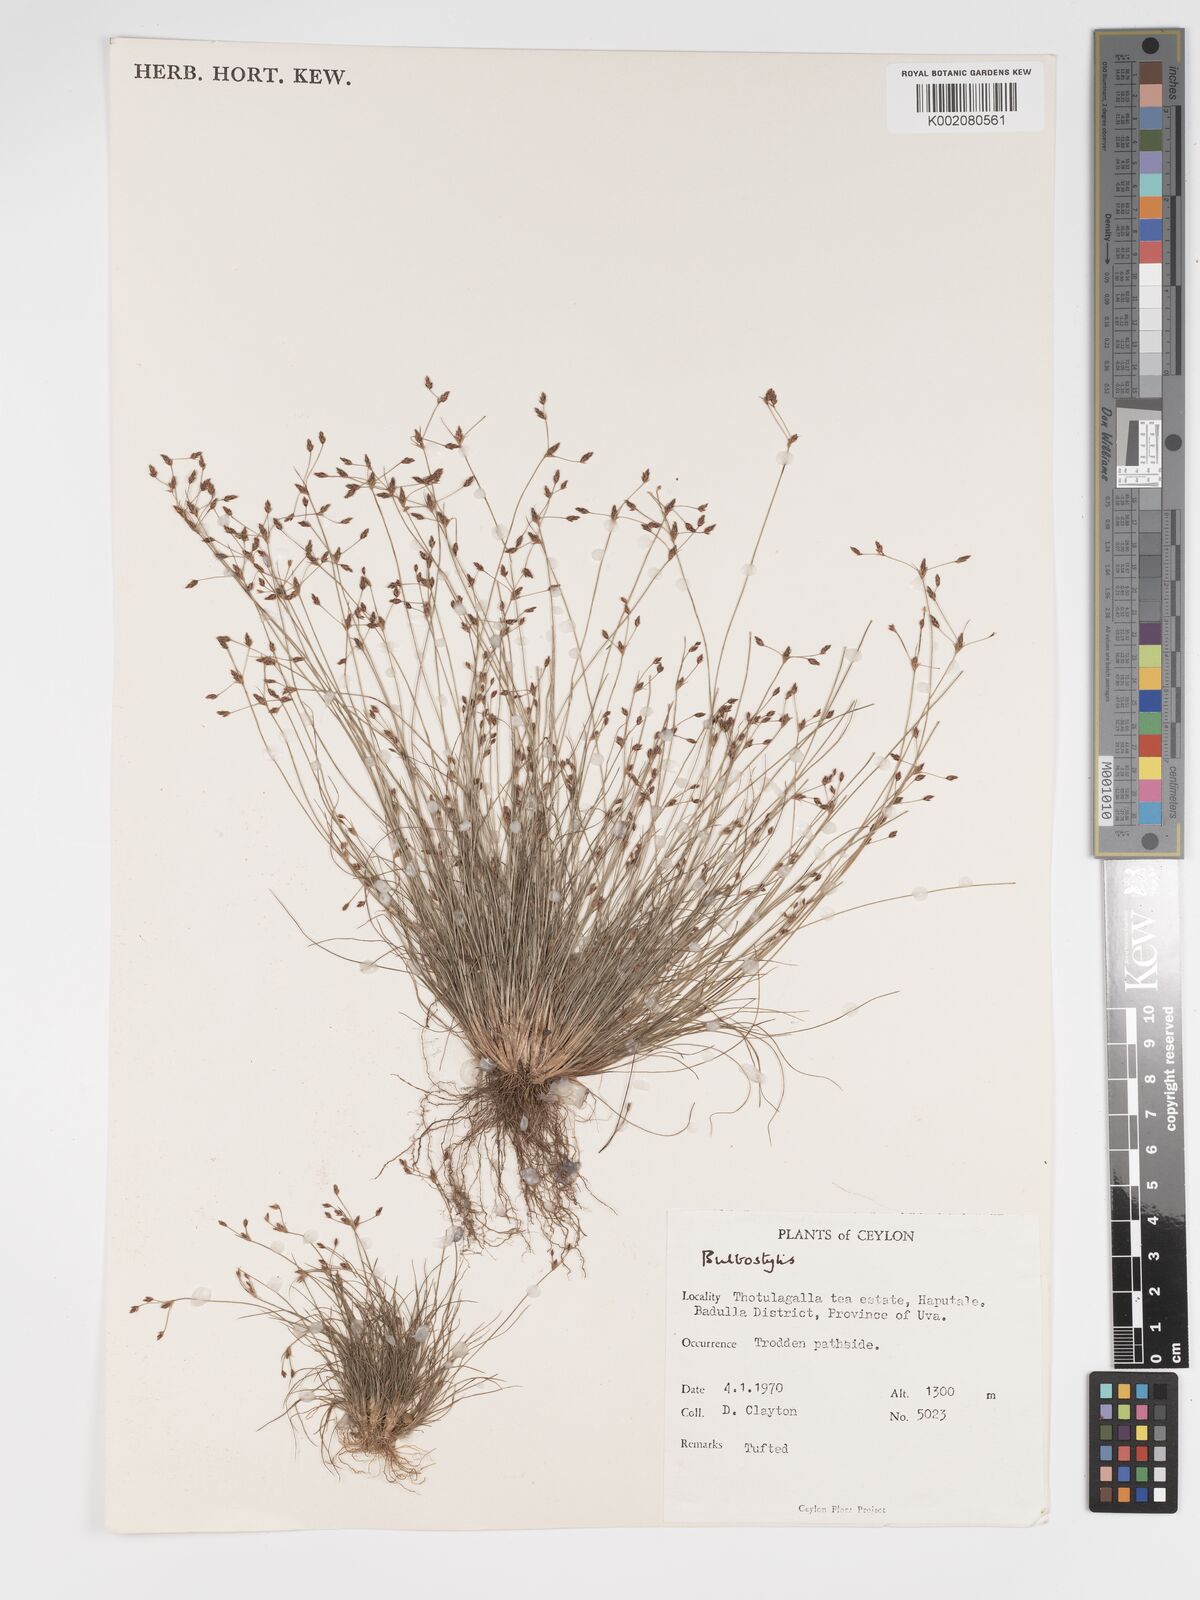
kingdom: Plantae
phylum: Tracheophyta
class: Liliopsida
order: Poales
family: Cyperaceae
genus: Bulbostylis
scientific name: Bulbostylis densa
